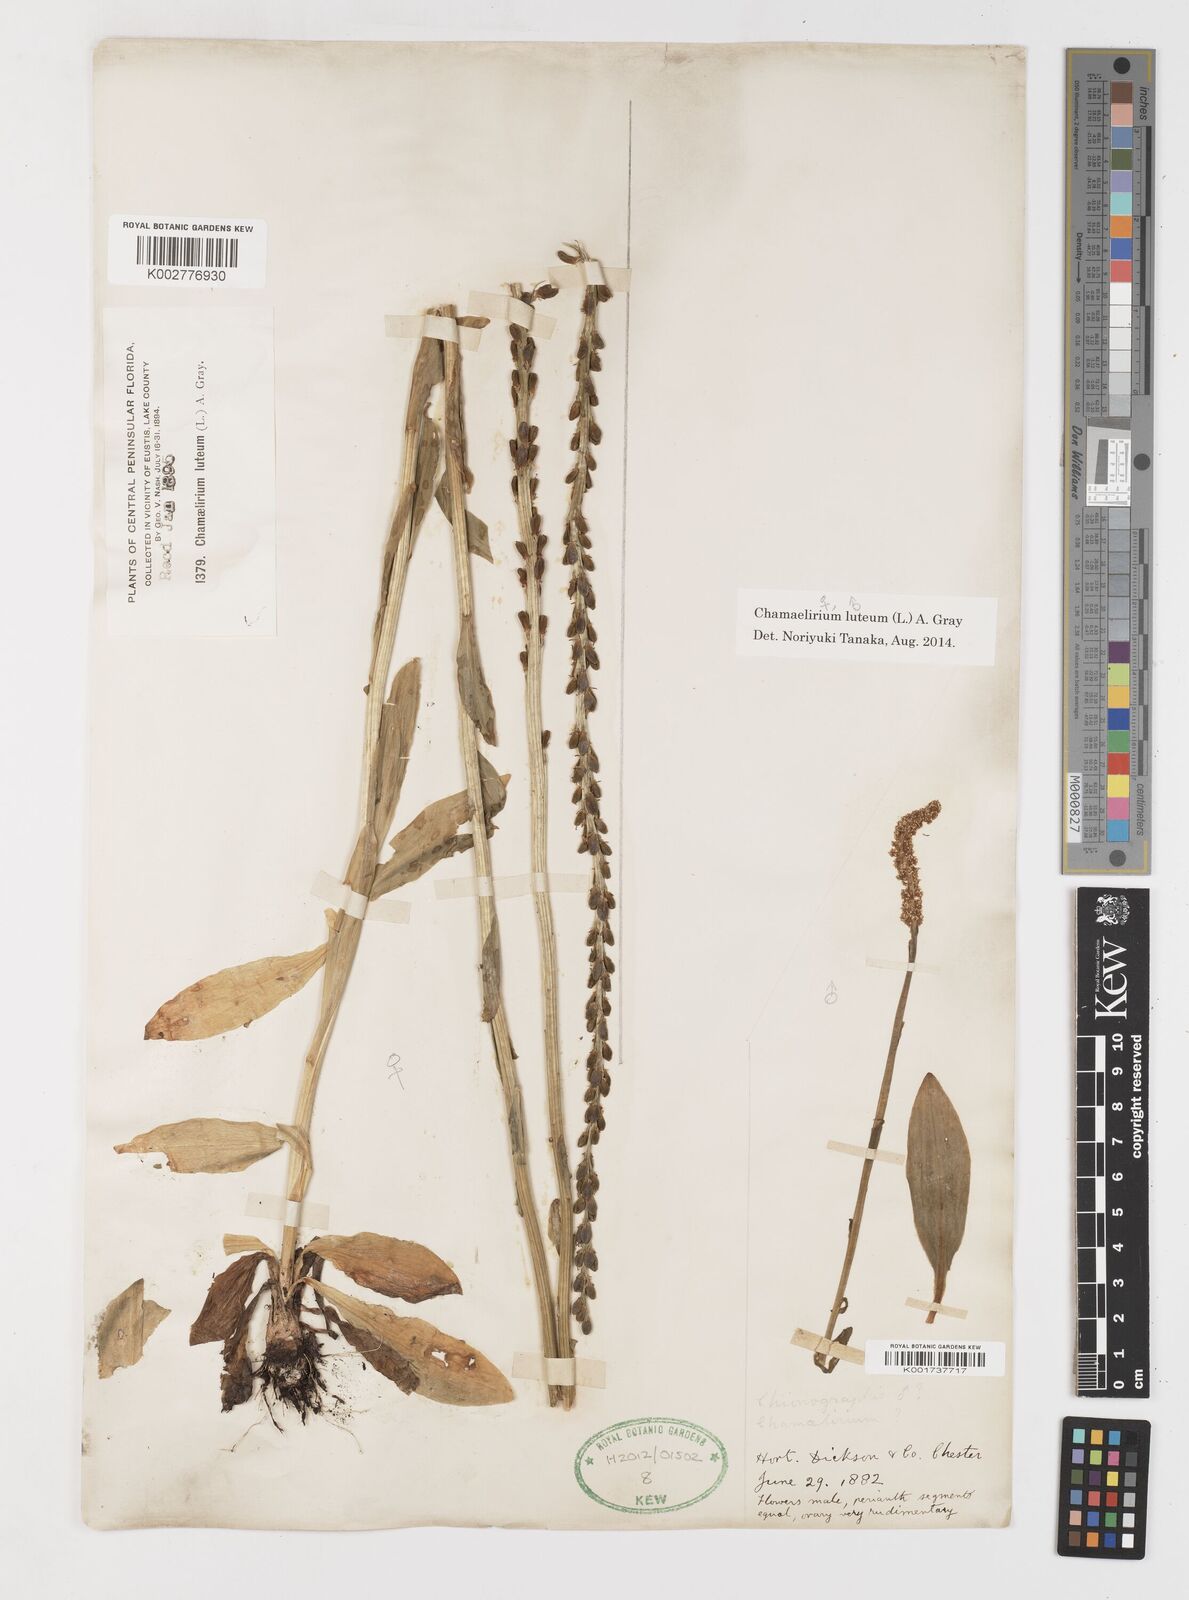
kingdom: Plantae
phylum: Tracheophyta
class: Liliopsida
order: Liliales
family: Melanthiaceae
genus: Chamaelirium
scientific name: Chamaelirium luteum
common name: Fairy-wand
